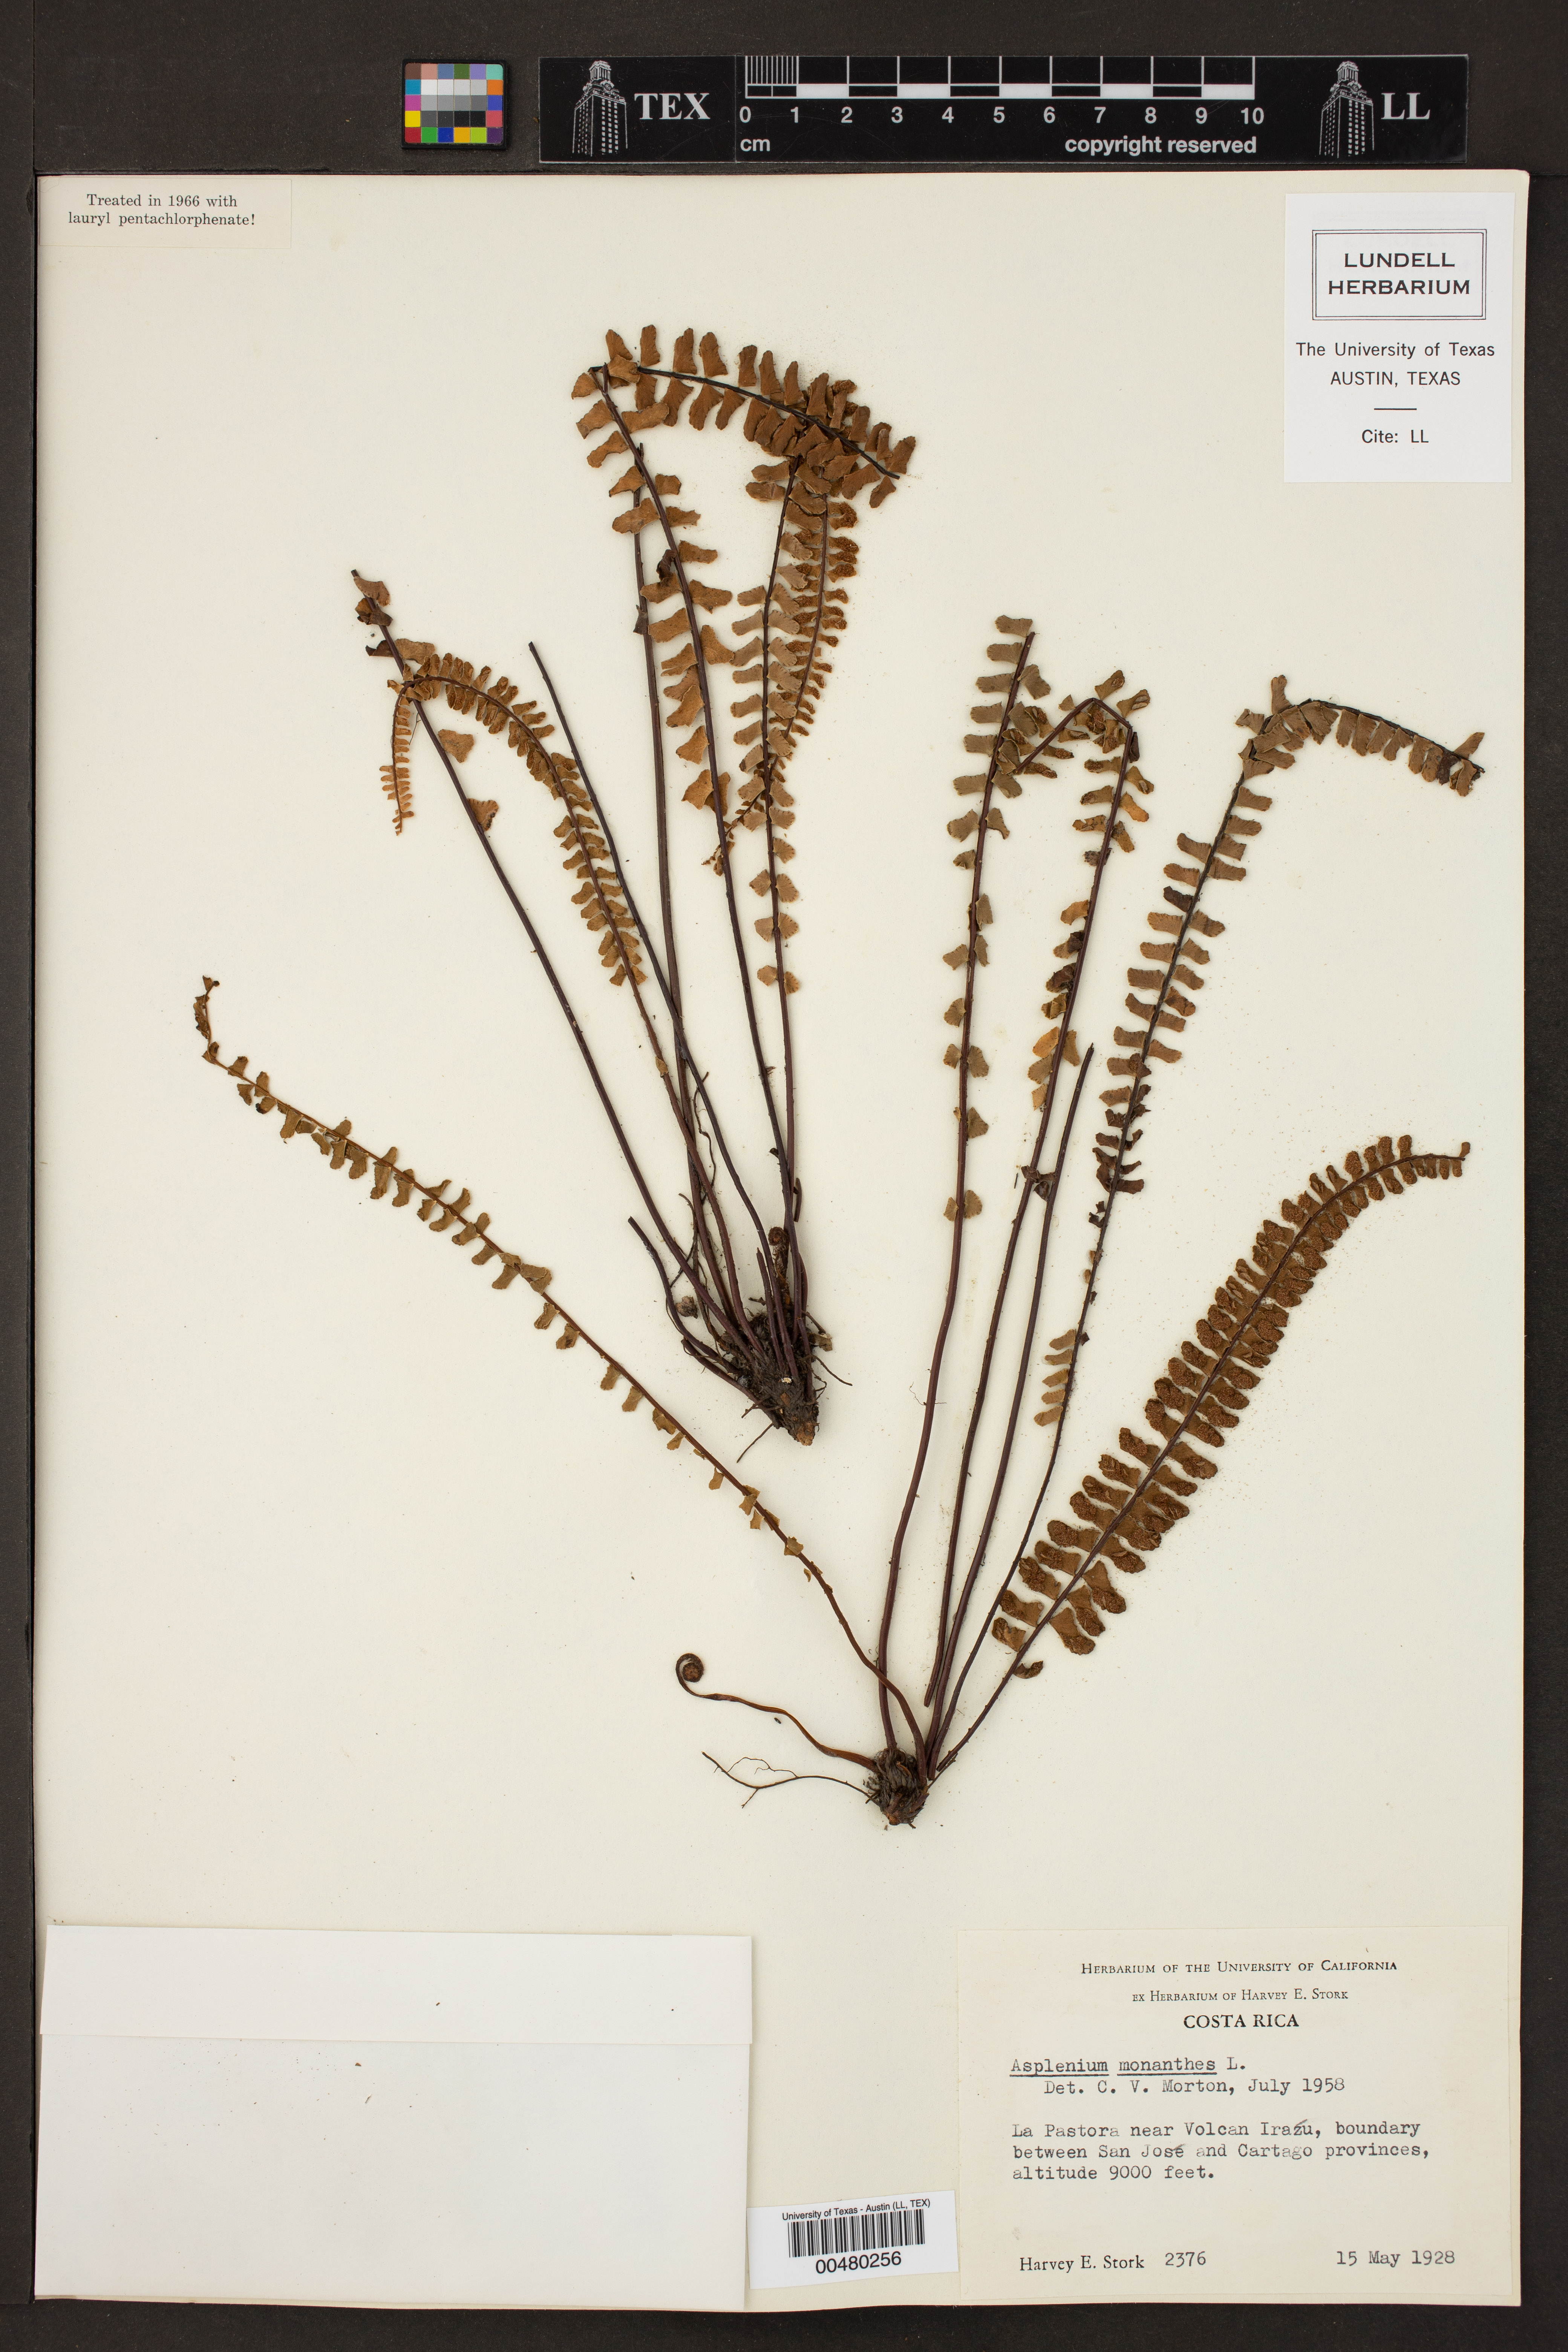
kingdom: Plantae
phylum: Tracheophyta
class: Polypodiopsida
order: Polypodiales
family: Aspleniaceae
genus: Asplenium
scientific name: Asplenium monanthes
